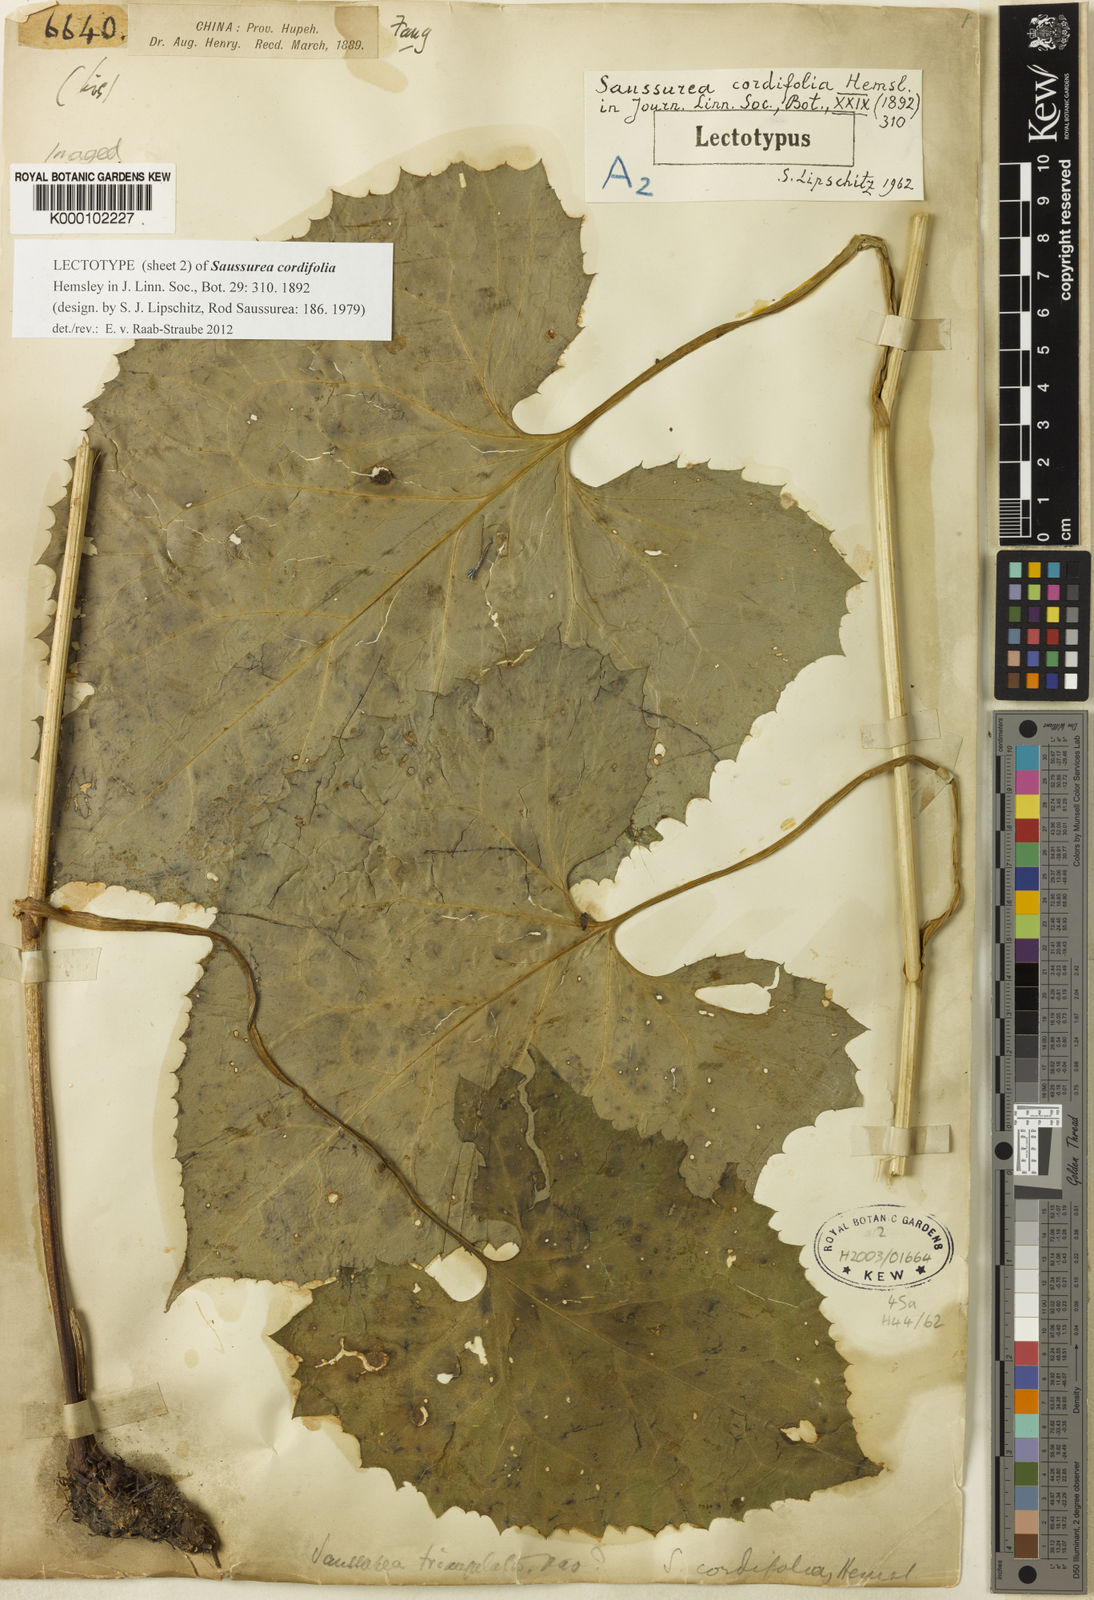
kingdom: Plantae
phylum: Tracheophyta
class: Magnoliopsida
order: Asterales
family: Asteraceae
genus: Saussurea
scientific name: Saussurea cordifolia
